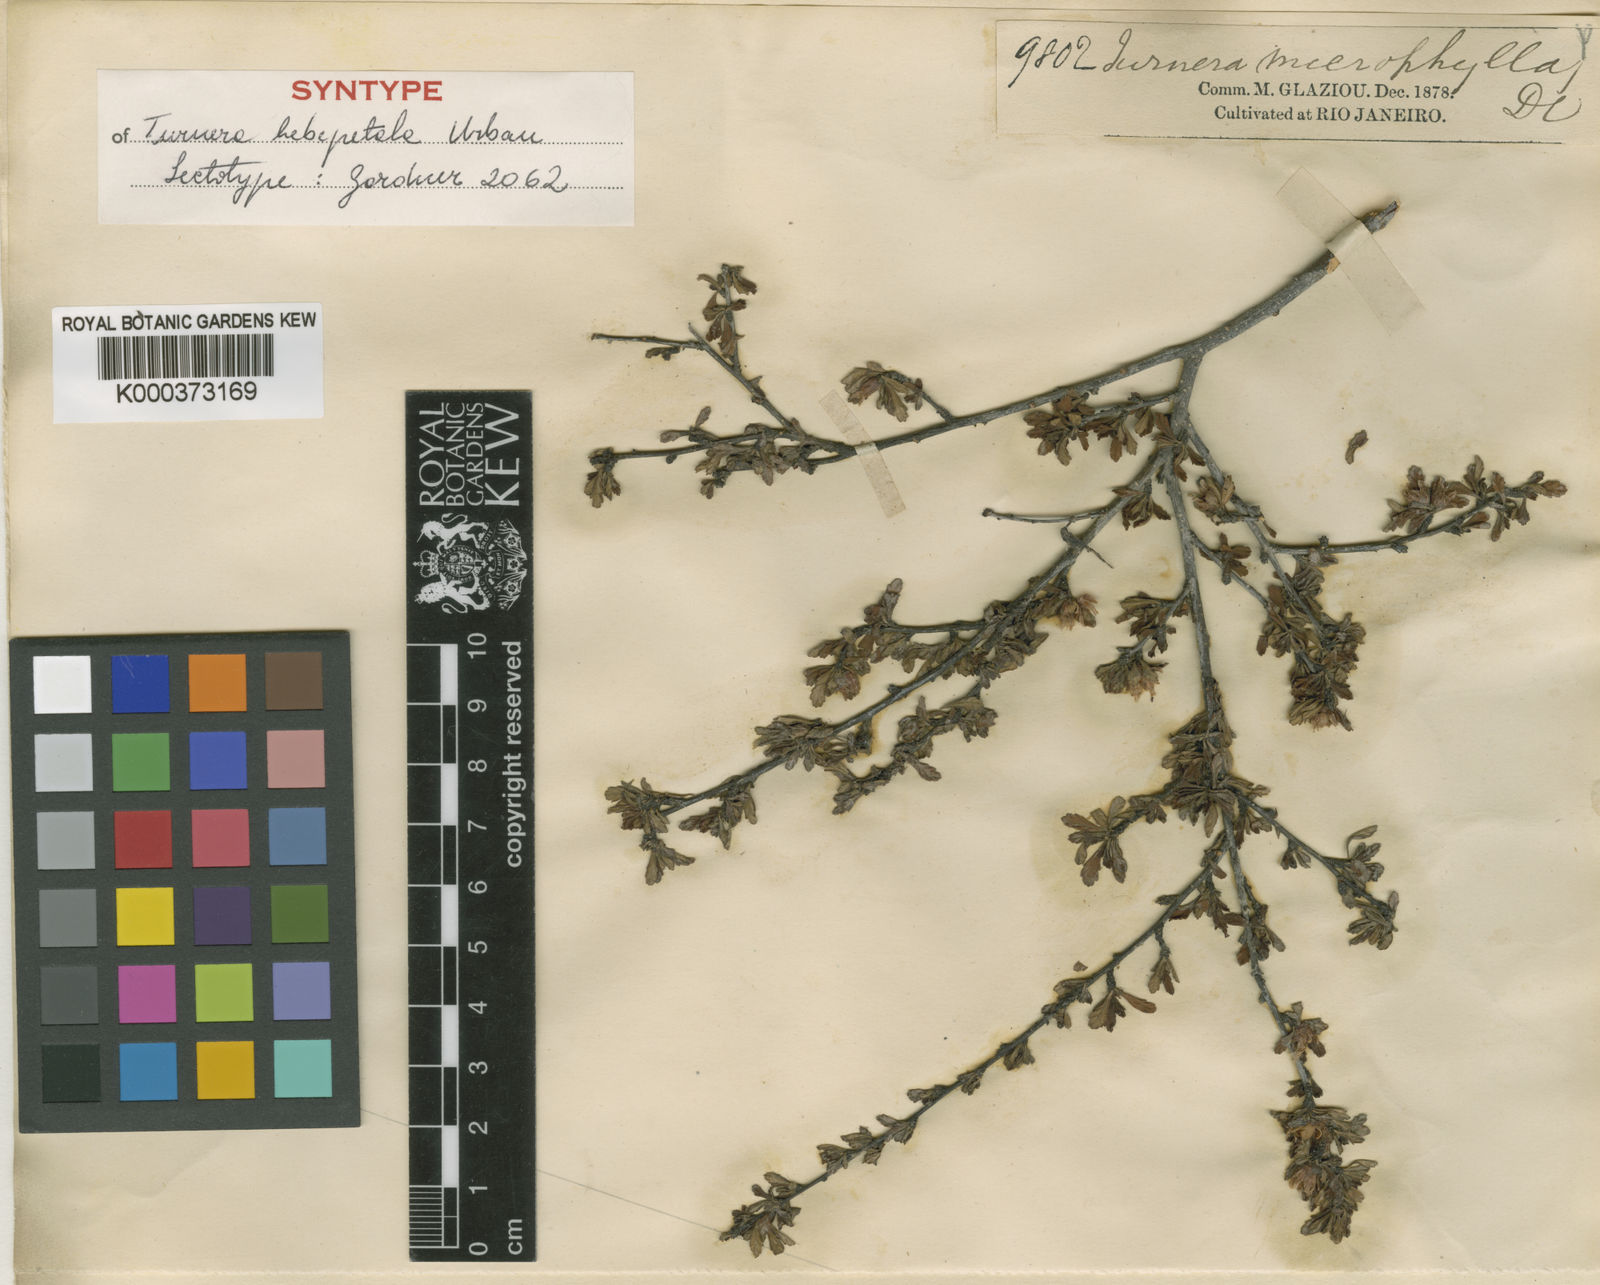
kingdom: Plantae
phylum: Tracheophyta
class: Magnoliopsida
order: Malpighiales
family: Turneraceae
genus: Oxossia
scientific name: Oxossia hebepetala
